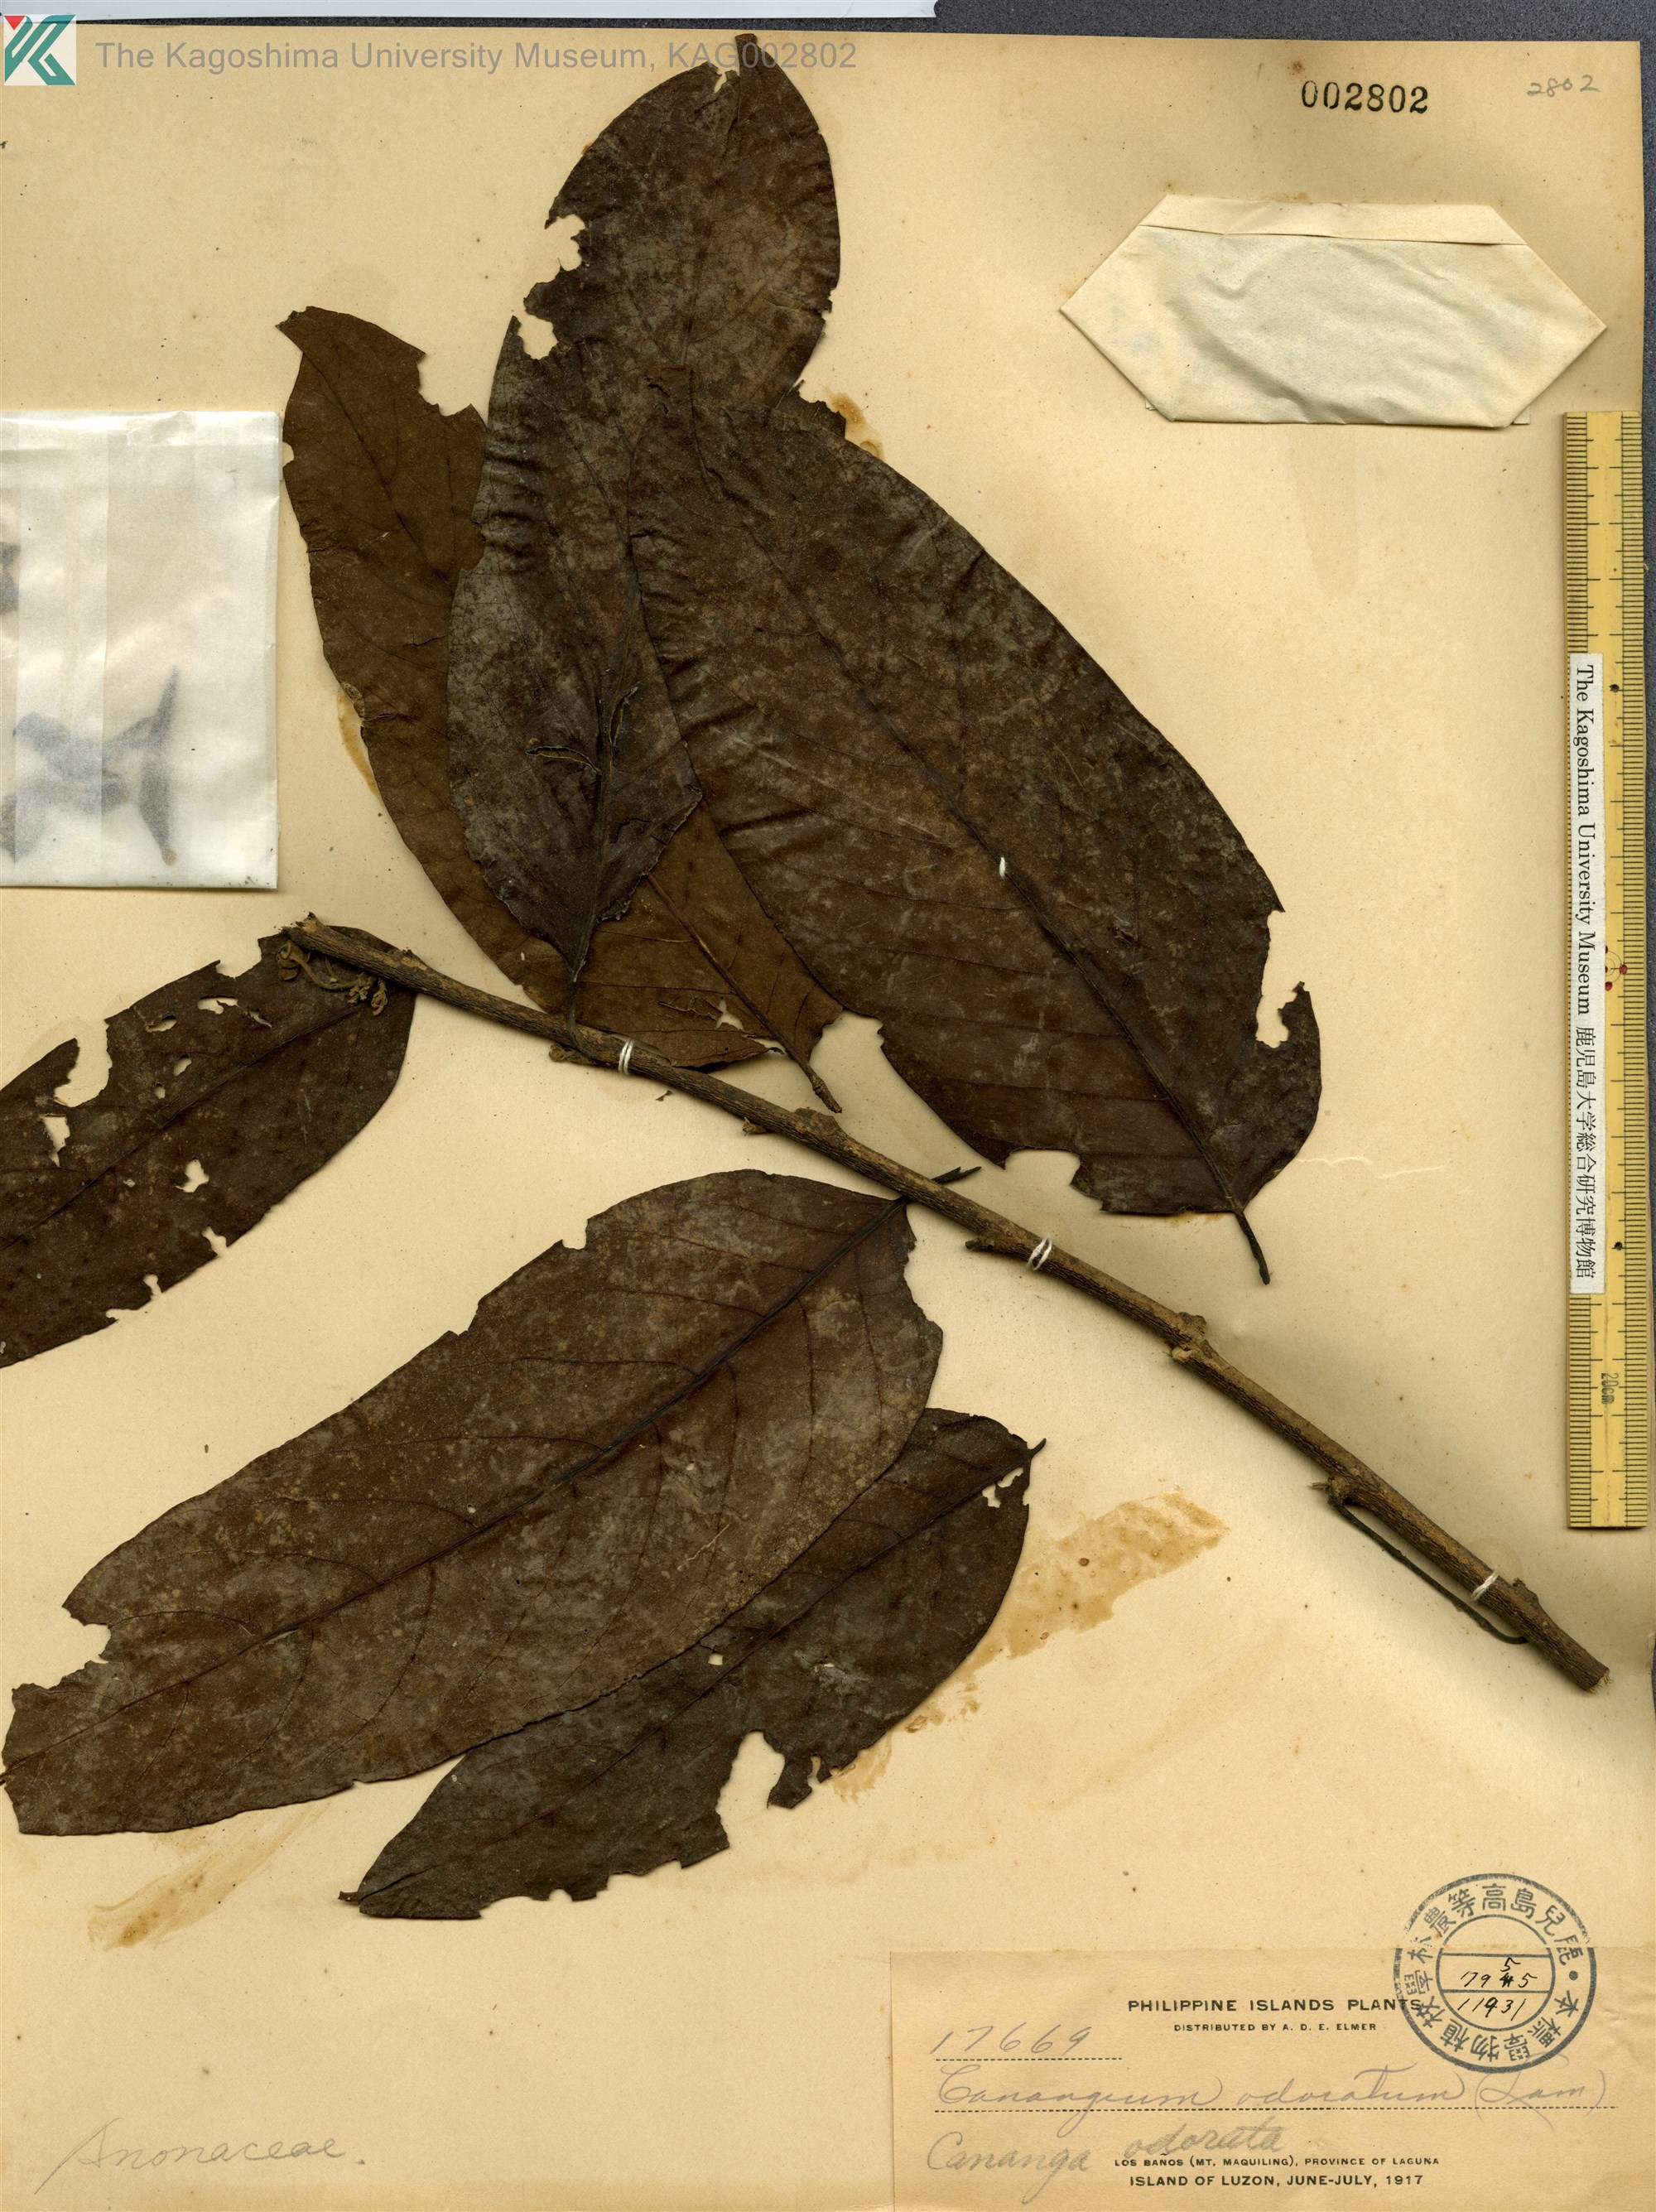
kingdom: Plantae
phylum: Tracheophyta
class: Magnoliopsida
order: Magnoliales
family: Annonaceae
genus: Cananga
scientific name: Cananga odorata
